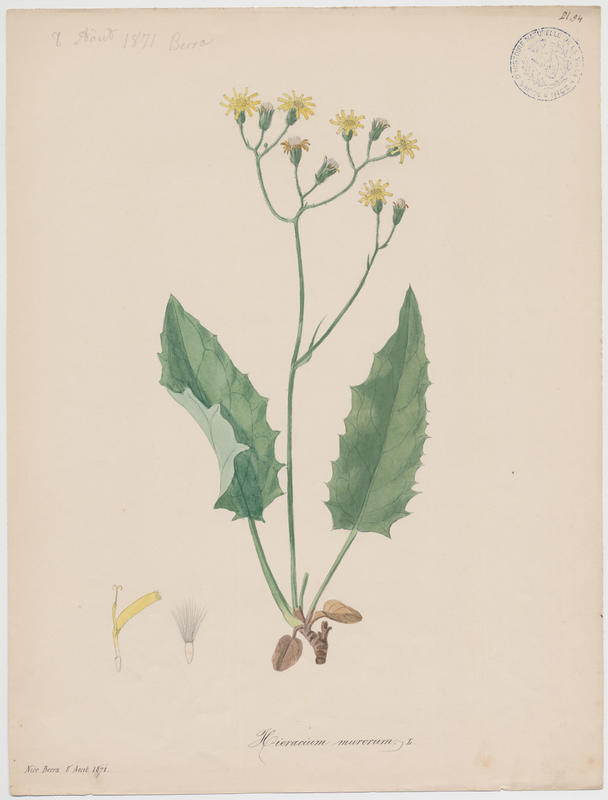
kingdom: Plantae
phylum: Tracheophyta
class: Magnoliopsida
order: Asterales
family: Asteraceae
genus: Hieracium
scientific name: Hieracium murorum
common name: Wall hawkweed
